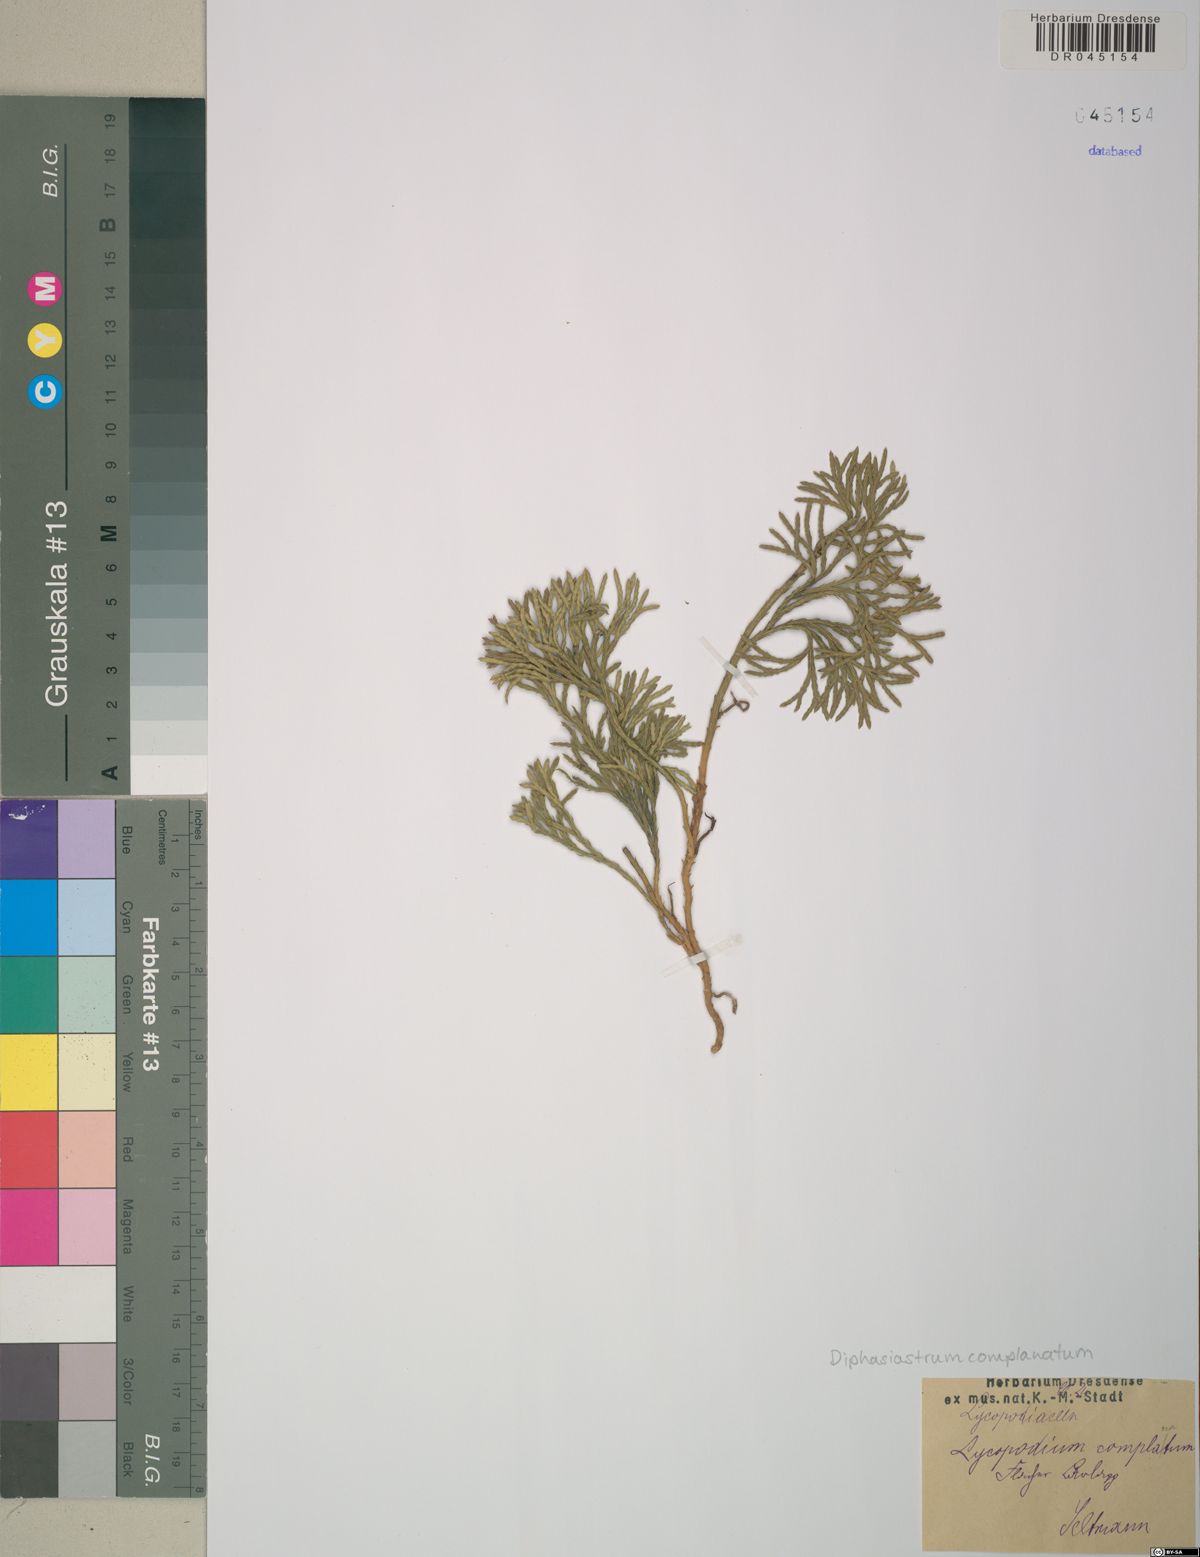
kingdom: Plantae
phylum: Tracheophyta
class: Lycopodiopsida
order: Lycopodiales
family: Lycopodiaceae
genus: Diphasiastrum
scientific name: Diphasiastrum complanatum
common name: Northern running-pine
